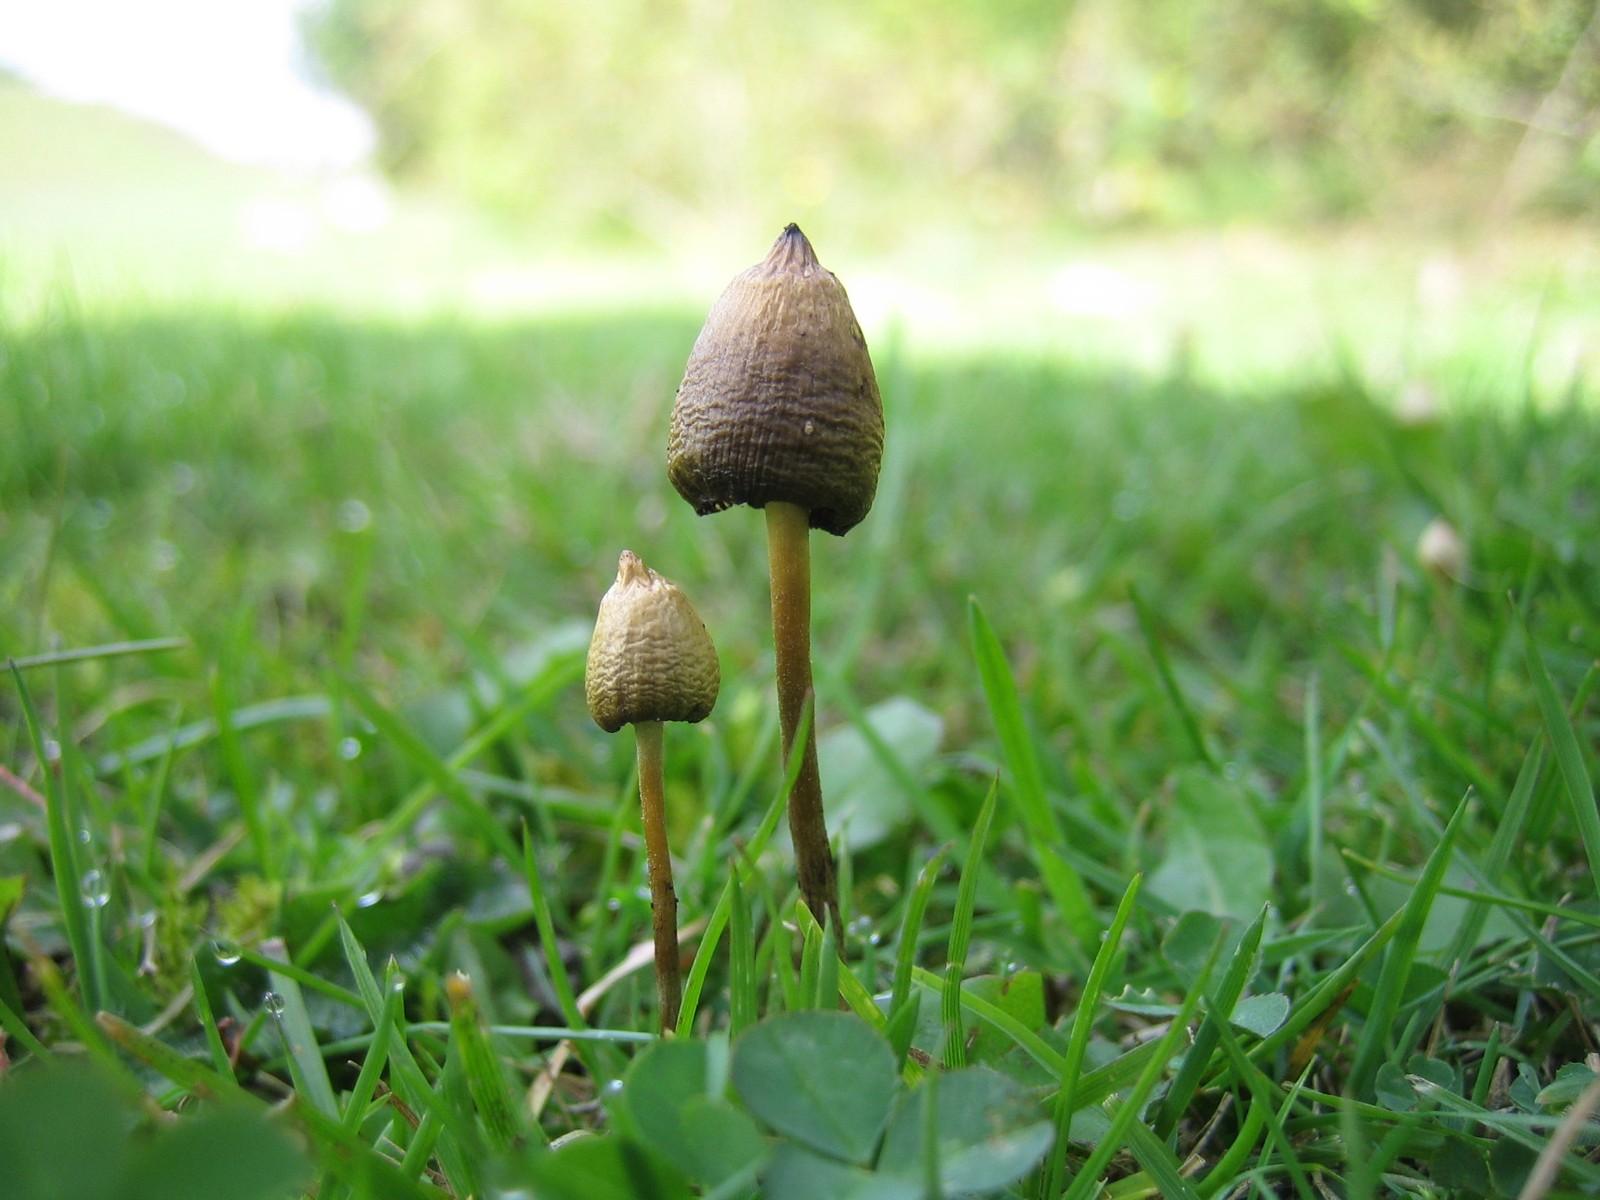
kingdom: Fungi
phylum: Basidiomycota
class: Agaricomycetes
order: Agaricales
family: Hymenogastraceae
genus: Psilocybe
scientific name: Psilocybe semilanceata
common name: spids nøgenhat
